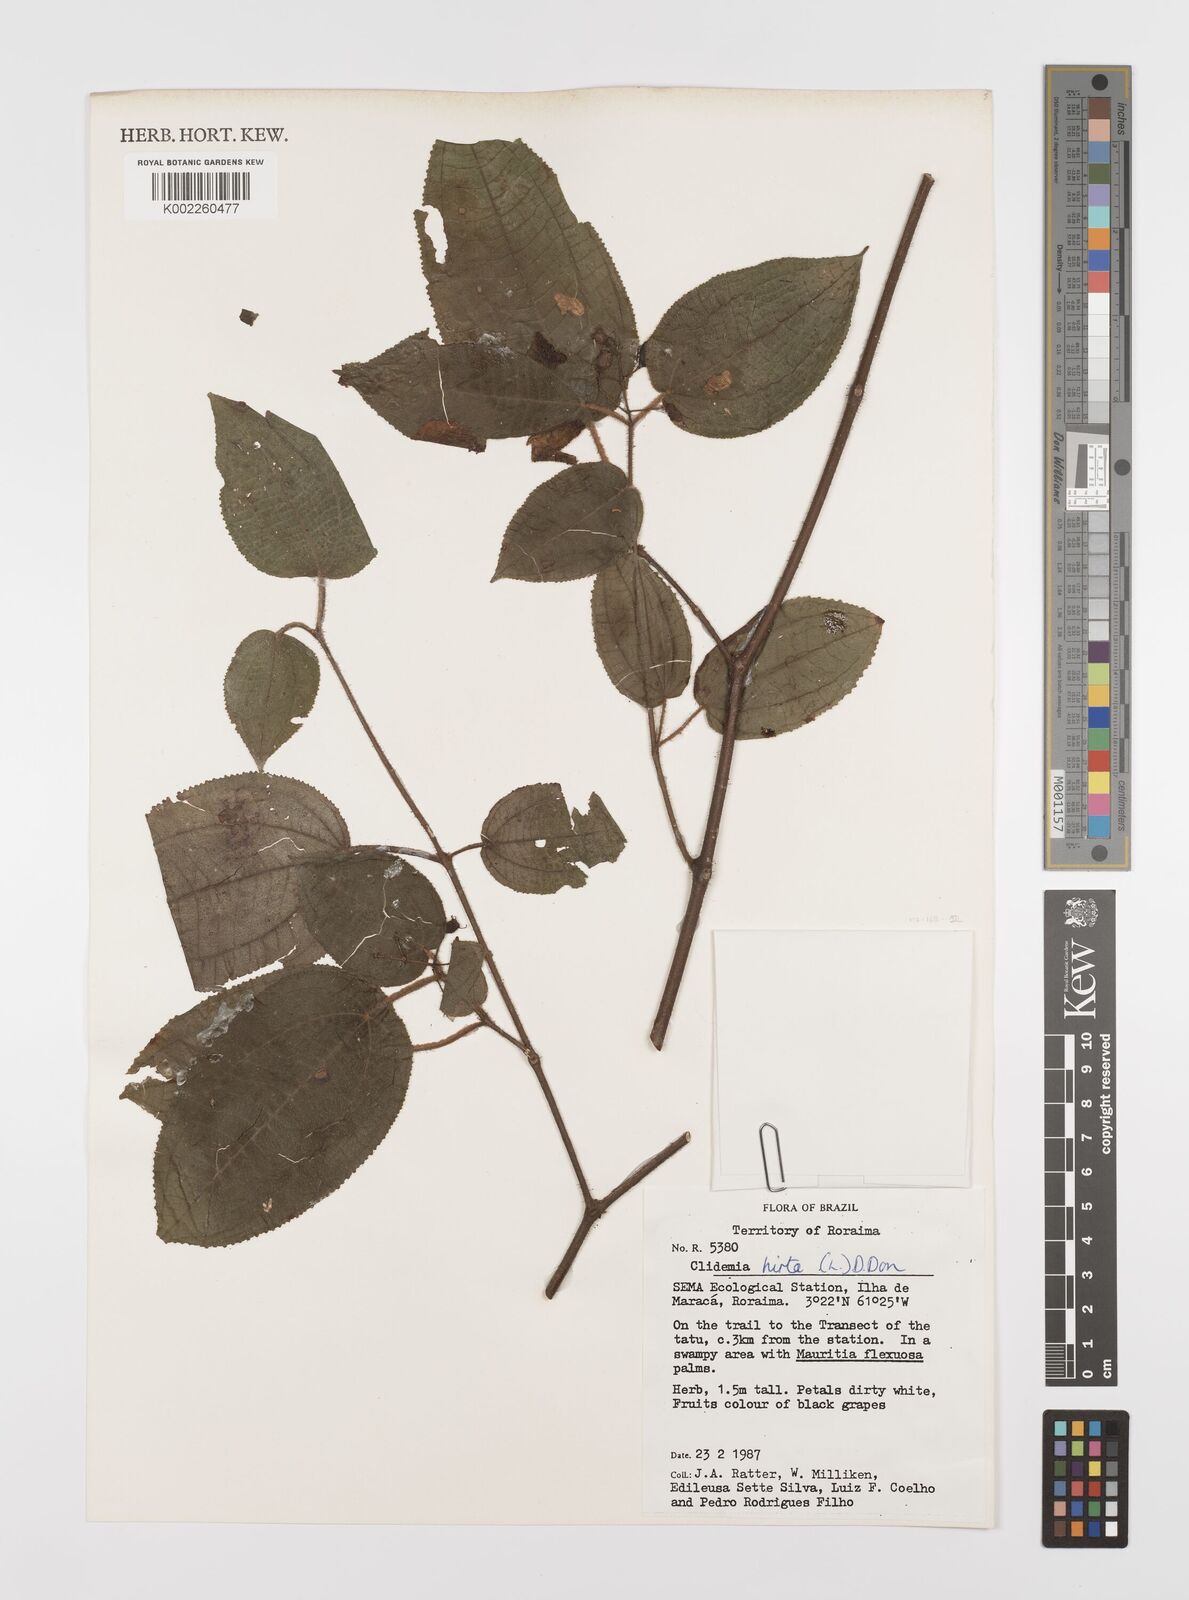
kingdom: Plantae
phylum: Tracheophyta
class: Magnoliopsida
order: Myrtales
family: Melastomataceae
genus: Miconia
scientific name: Miconia crenata
